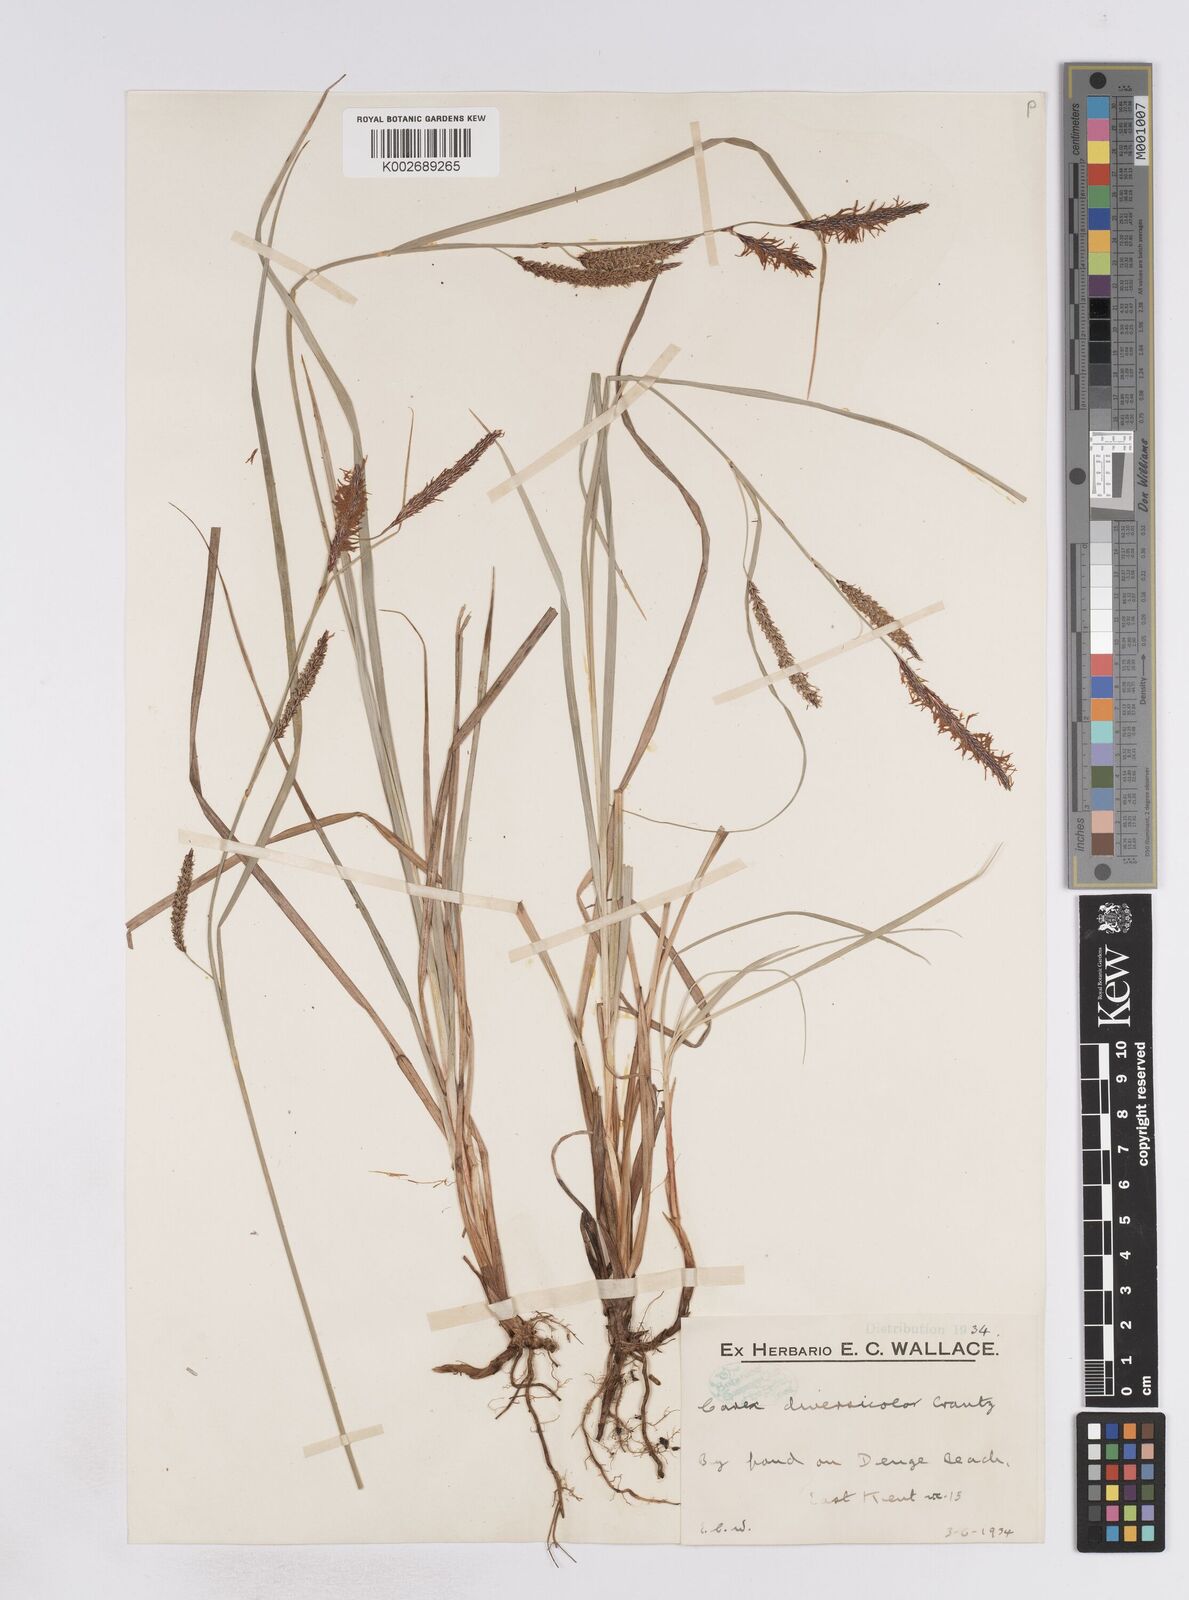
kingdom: Plantae
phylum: Tracheophyta
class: Liliopsida
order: Poales
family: Cyperaceae
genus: Carex
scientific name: Carex flacca
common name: Glaucous sedge
